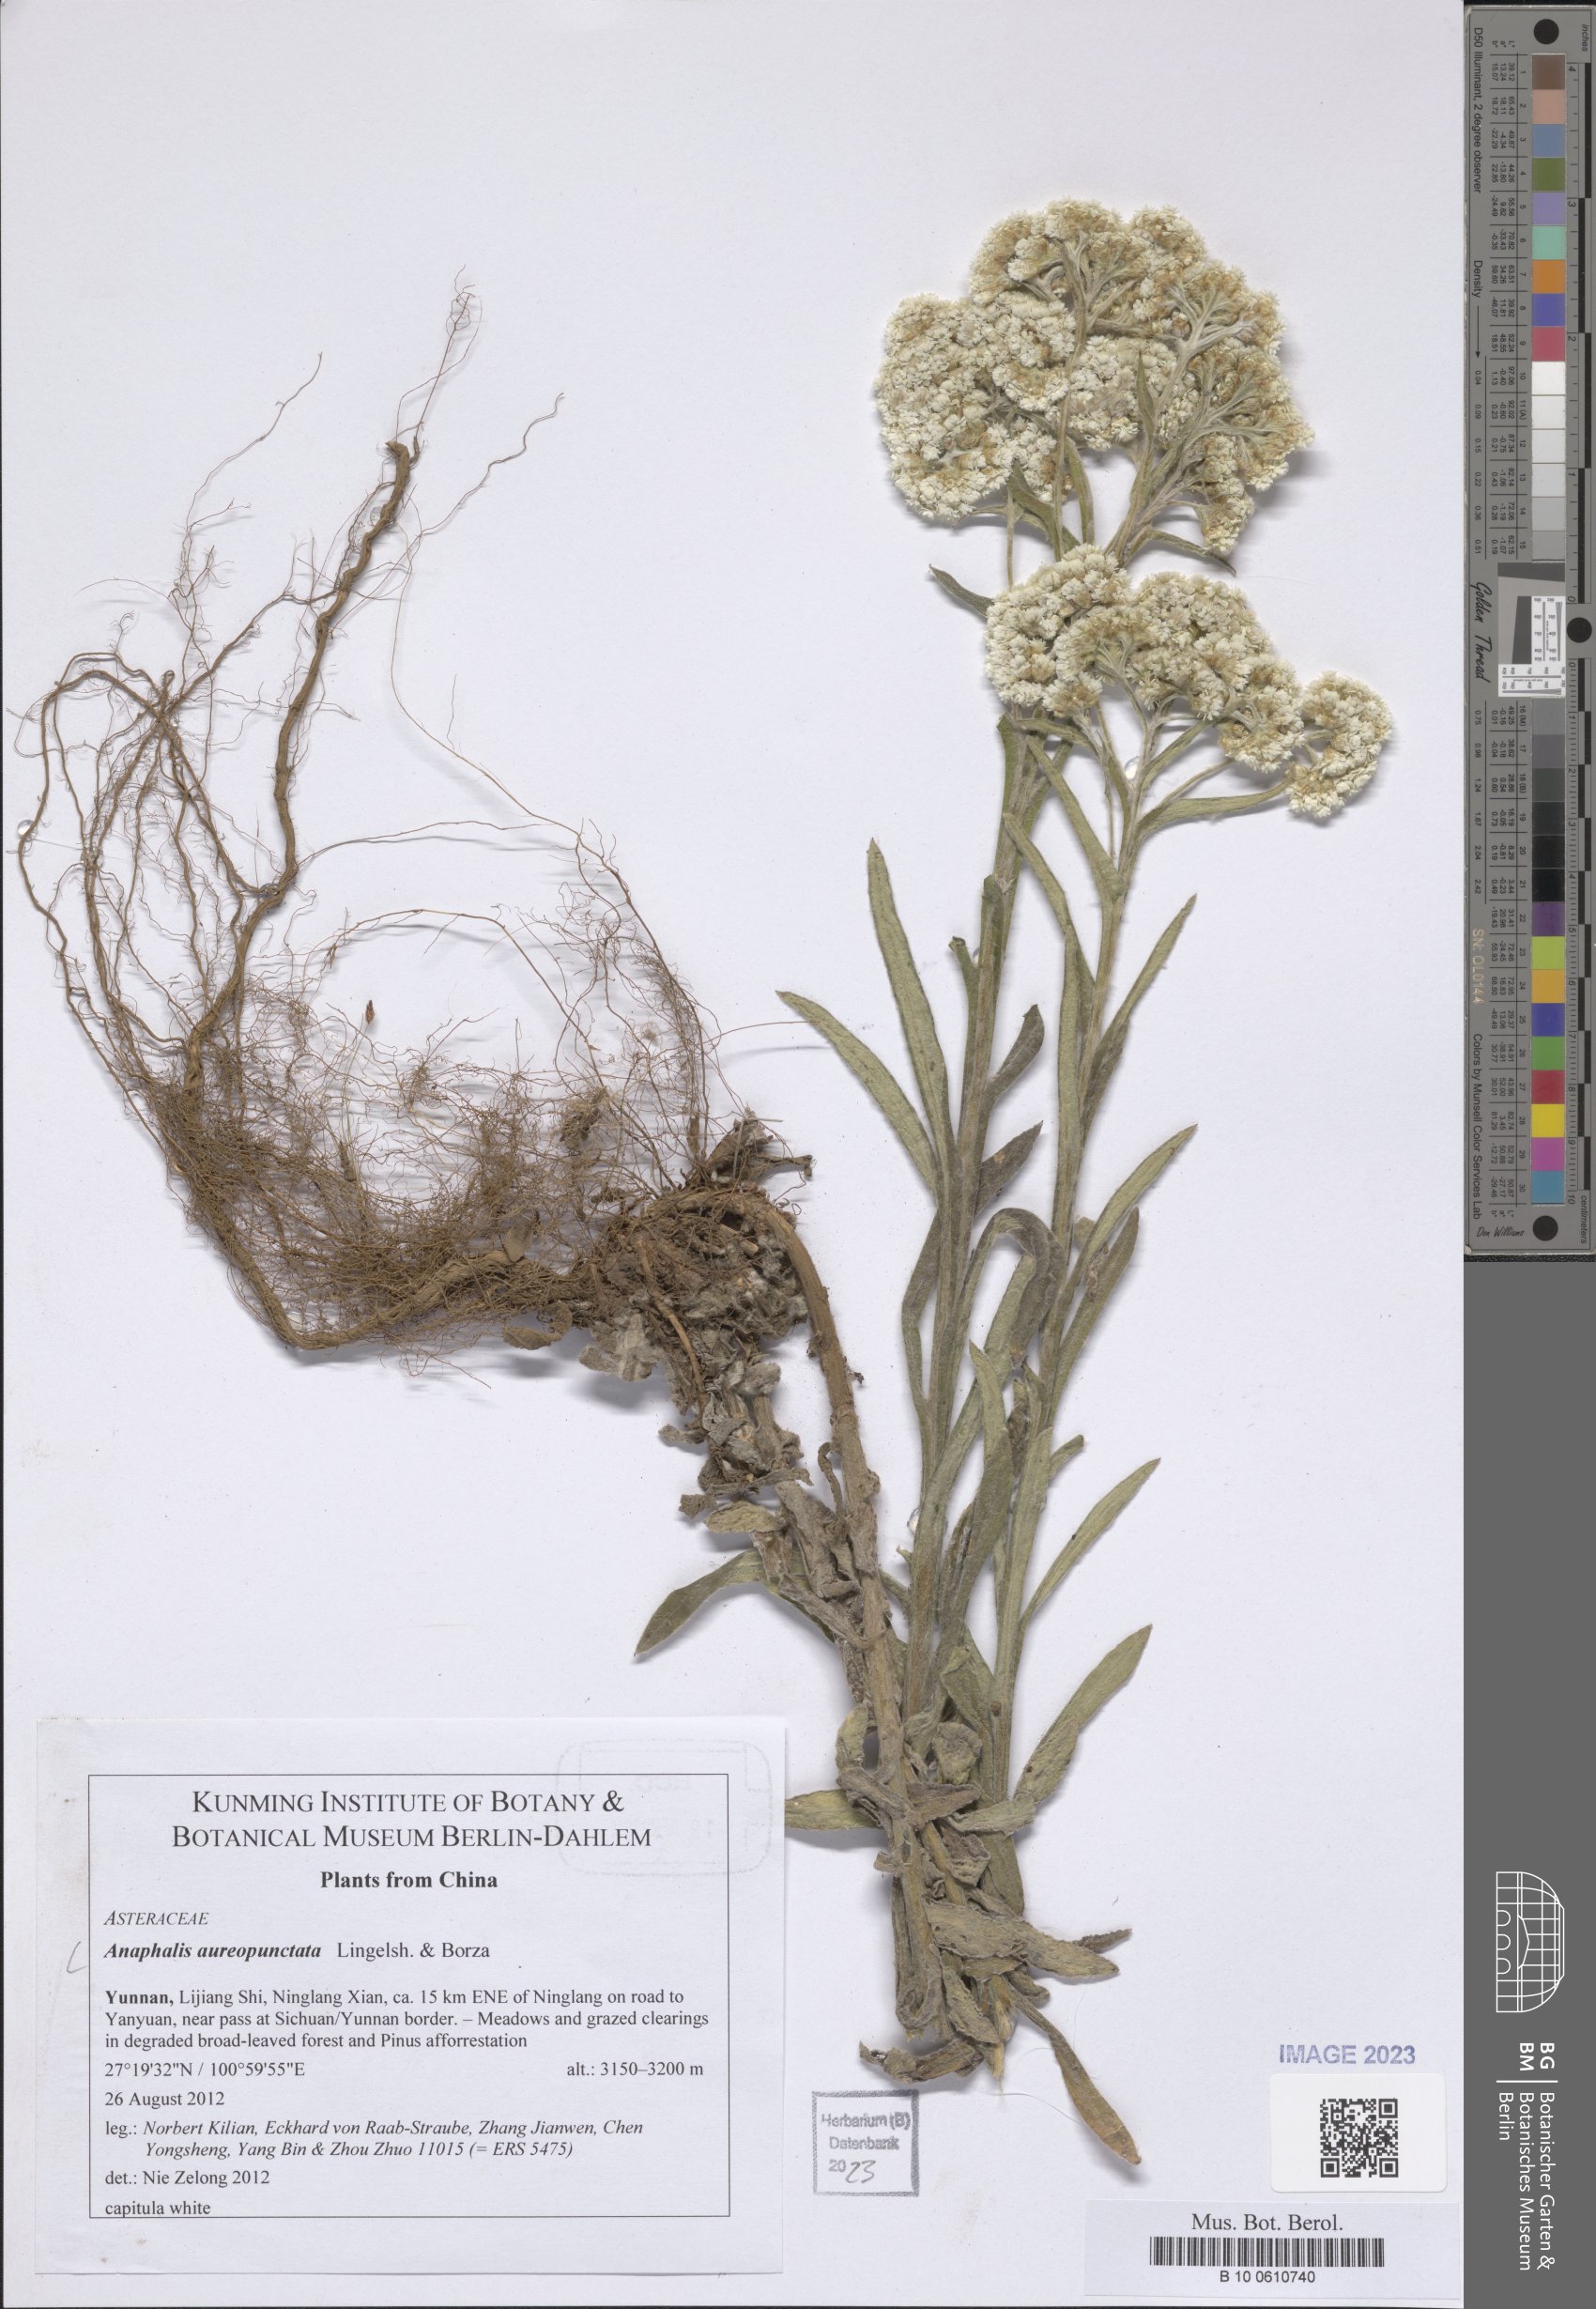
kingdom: Plantae
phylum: Tracheophyta
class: Magnoliopsida
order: Asterales
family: Asteraceae
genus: Anaphalis
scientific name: Anaphalis aureopunctata
